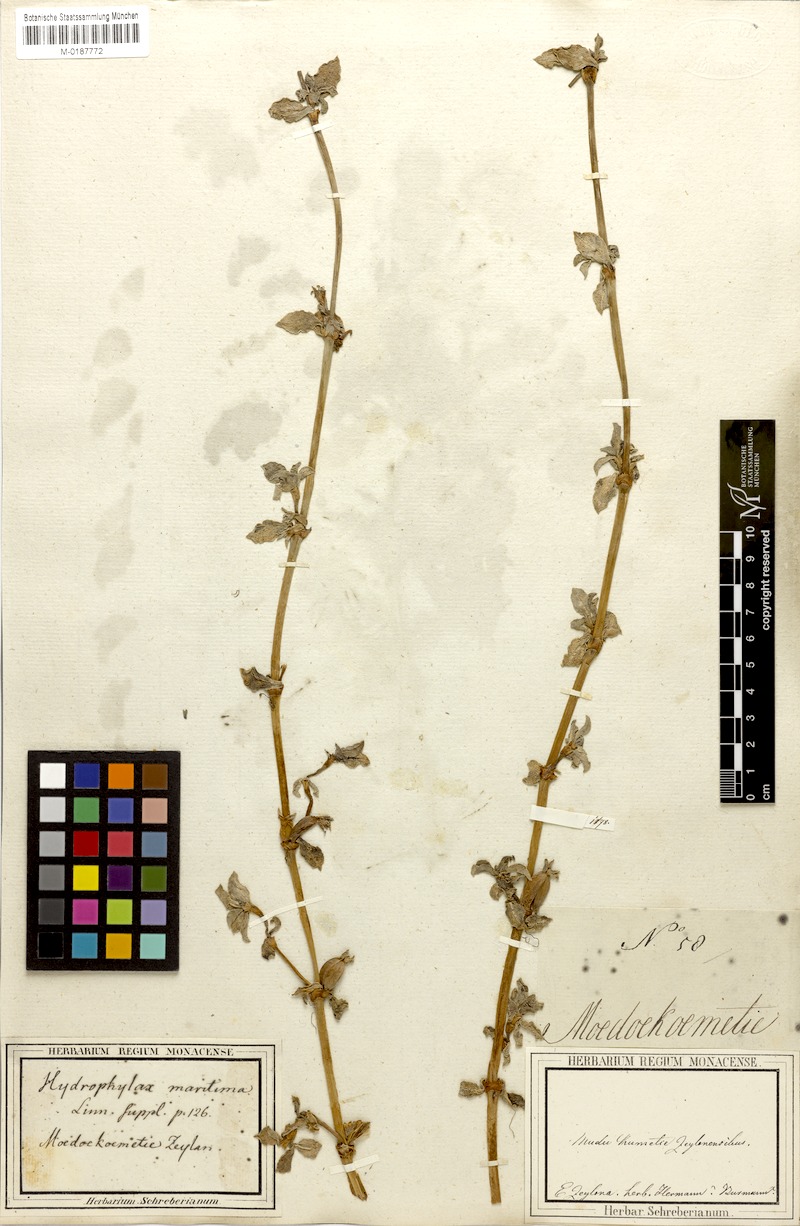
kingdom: Plantae
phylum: Tracheophyta
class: Magnoliopsida
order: Gentianales
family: Rubiaceae
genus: Hydrophylax
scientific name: Hydrophylax maritima
